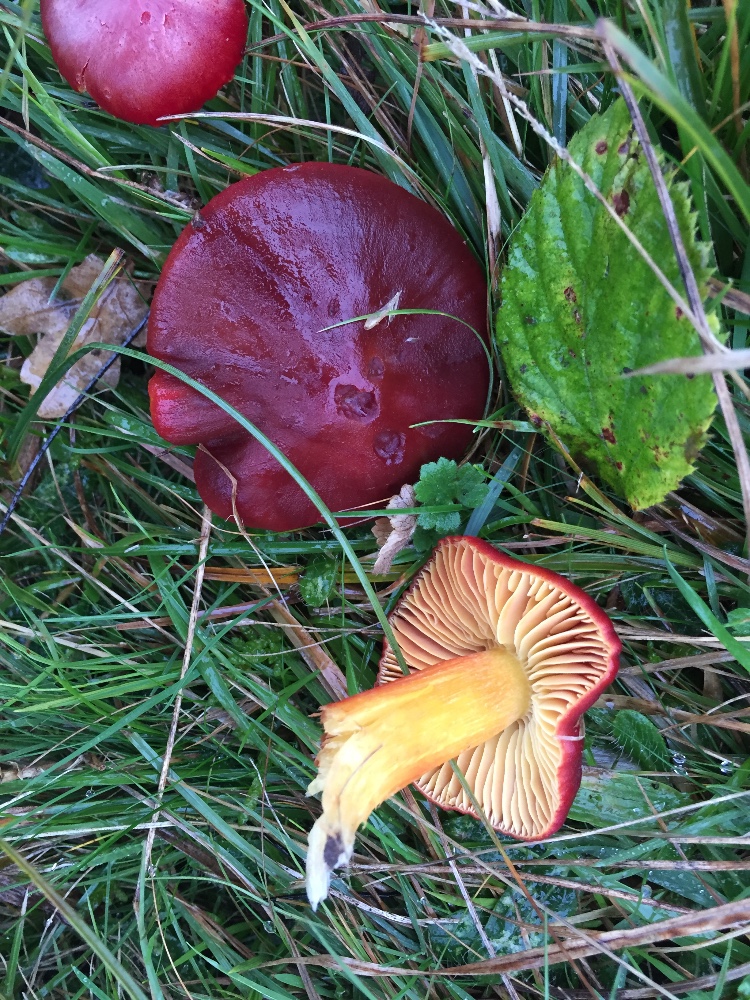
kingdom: Fungi
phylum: Basidiomycota
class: Agaricomycetes
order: Agaricales
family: Hygrophoraceae
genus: Hygrocybe
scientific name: Hygrocybe punicea
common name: skarlagen-vokshat
